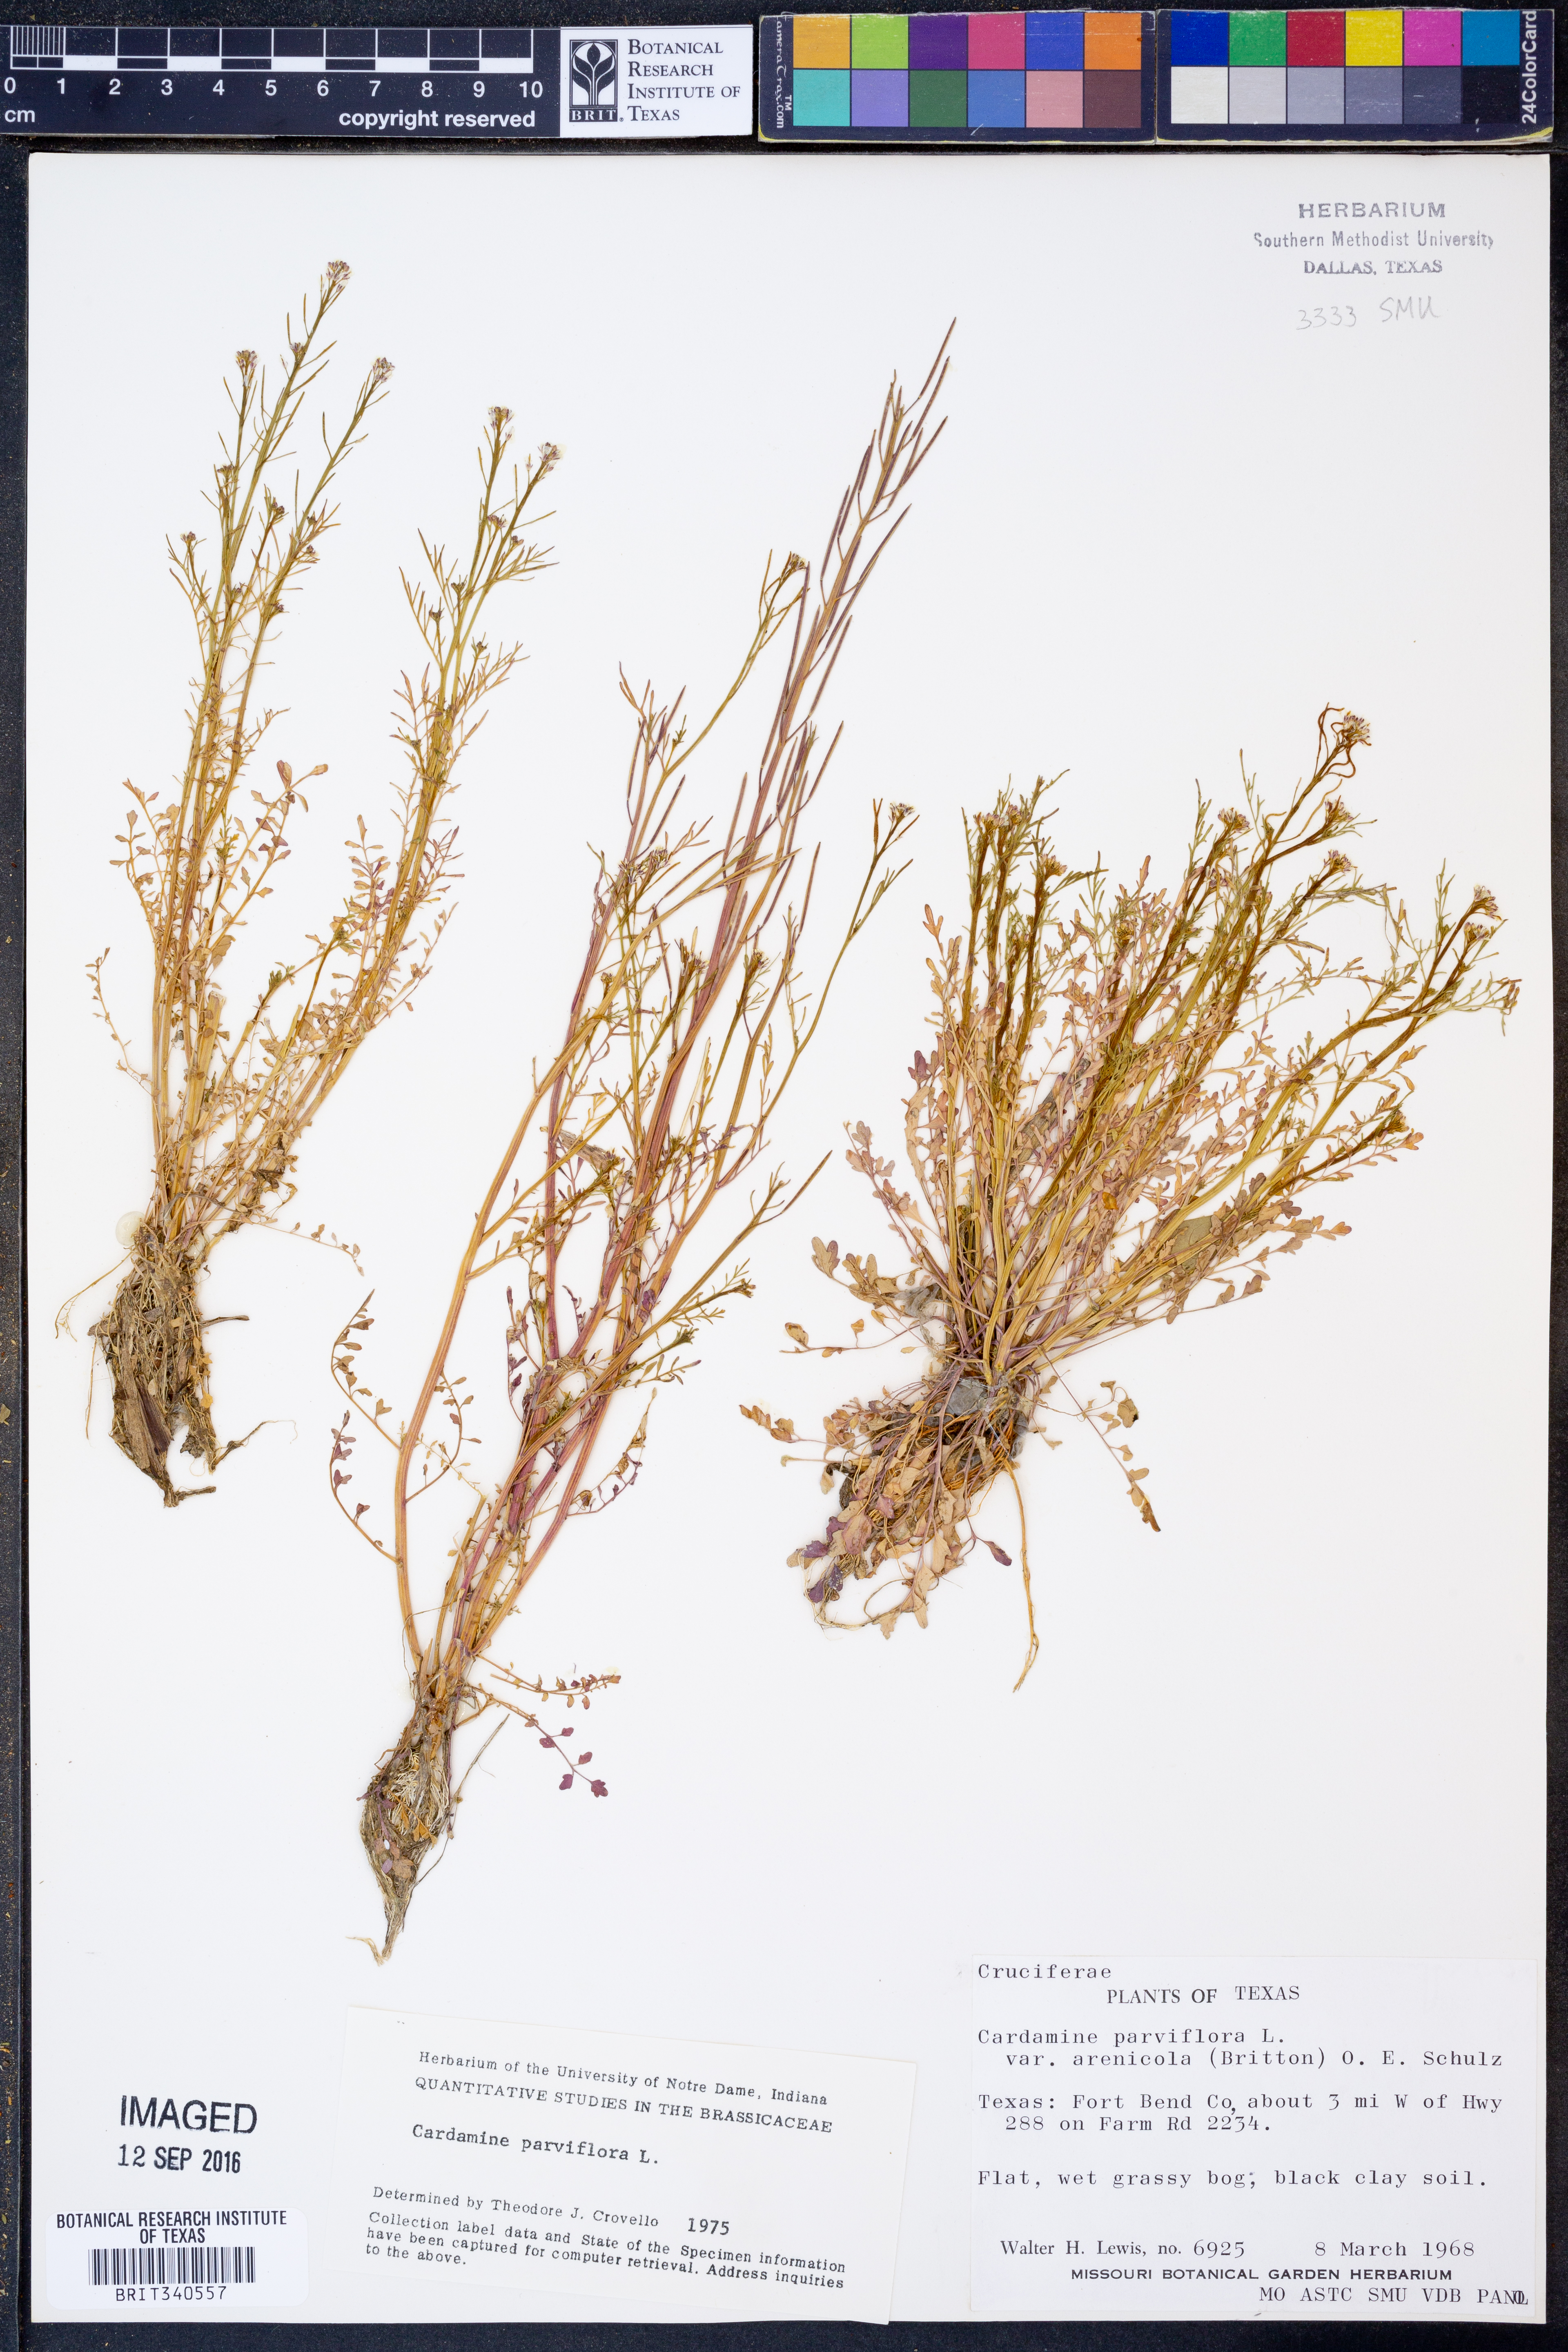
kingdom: Plantae
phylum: Tracheophyta
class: Magnoliopsida
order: Brassicales
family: Brassicaceae
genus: Cardamine
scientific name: Cardamine parviflora
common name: Sand bittercress
